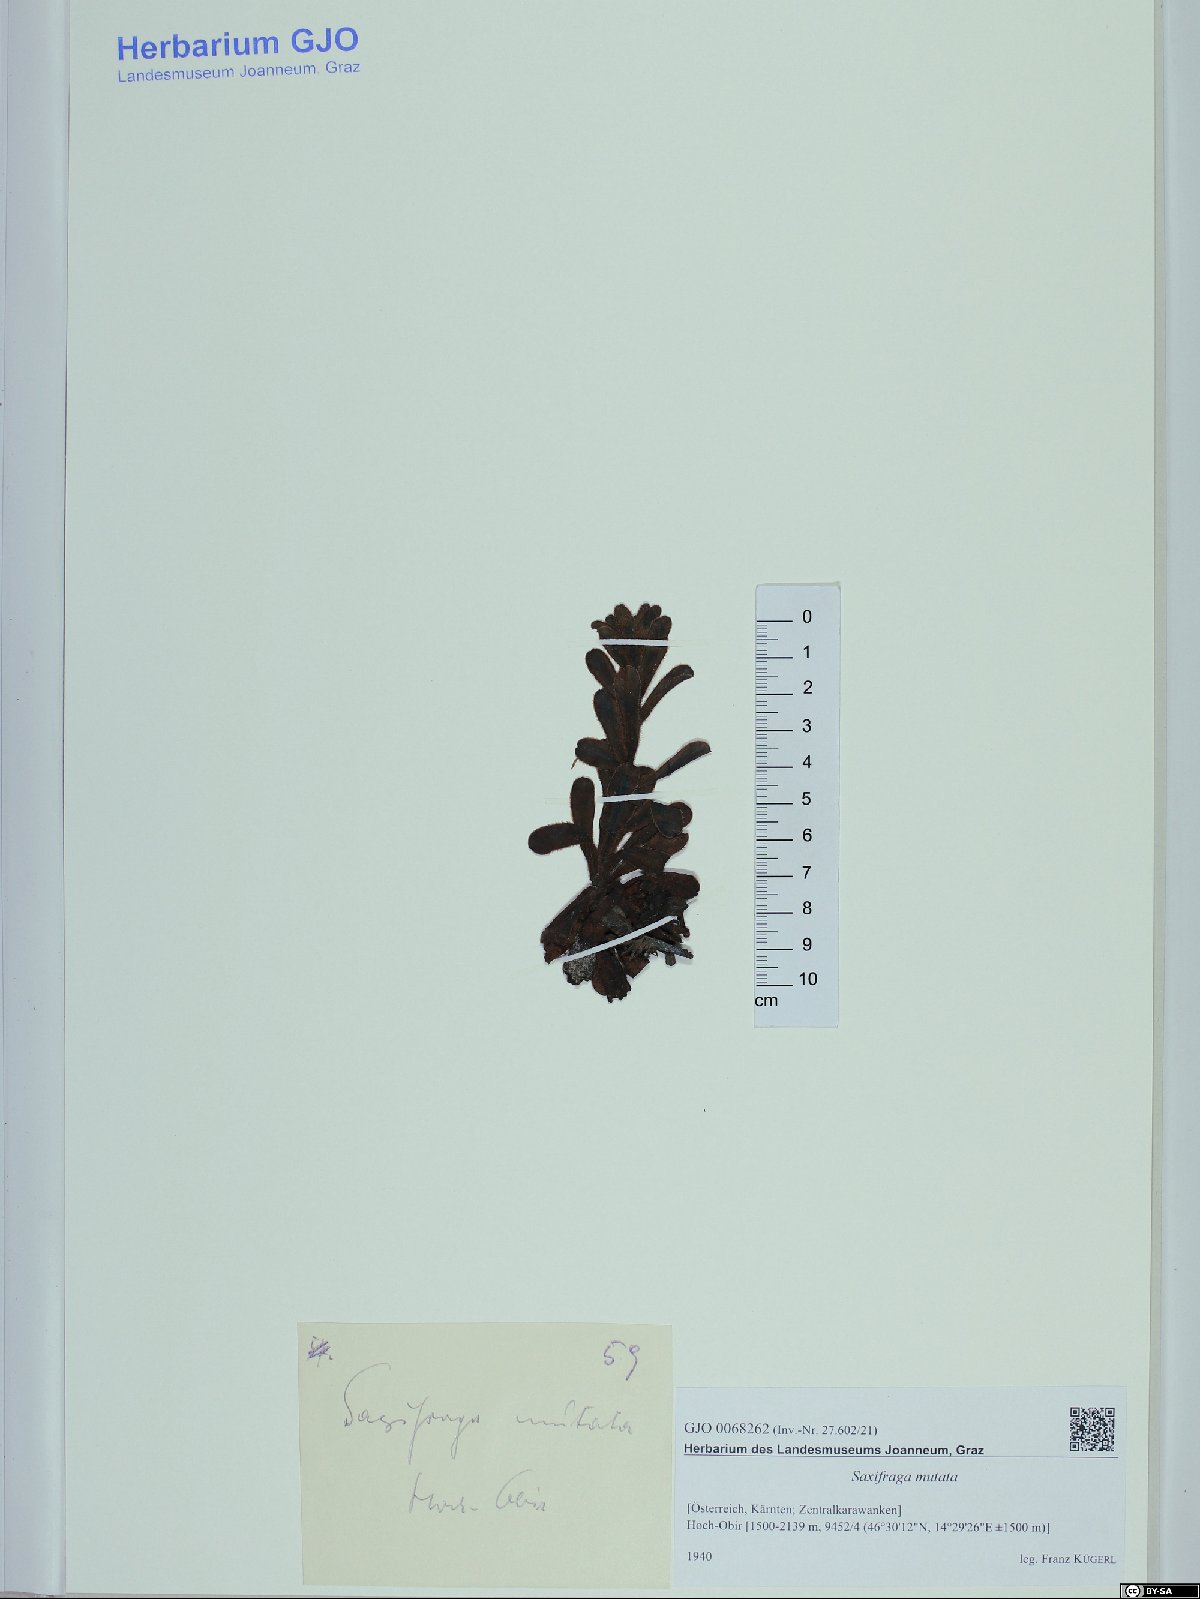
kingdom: Plantae
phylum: Tracheophyta
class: Magnoliopsida
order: Saxifragales
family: Saxifragaceae
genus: Saxifraga
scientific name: Saxifraga mutata
